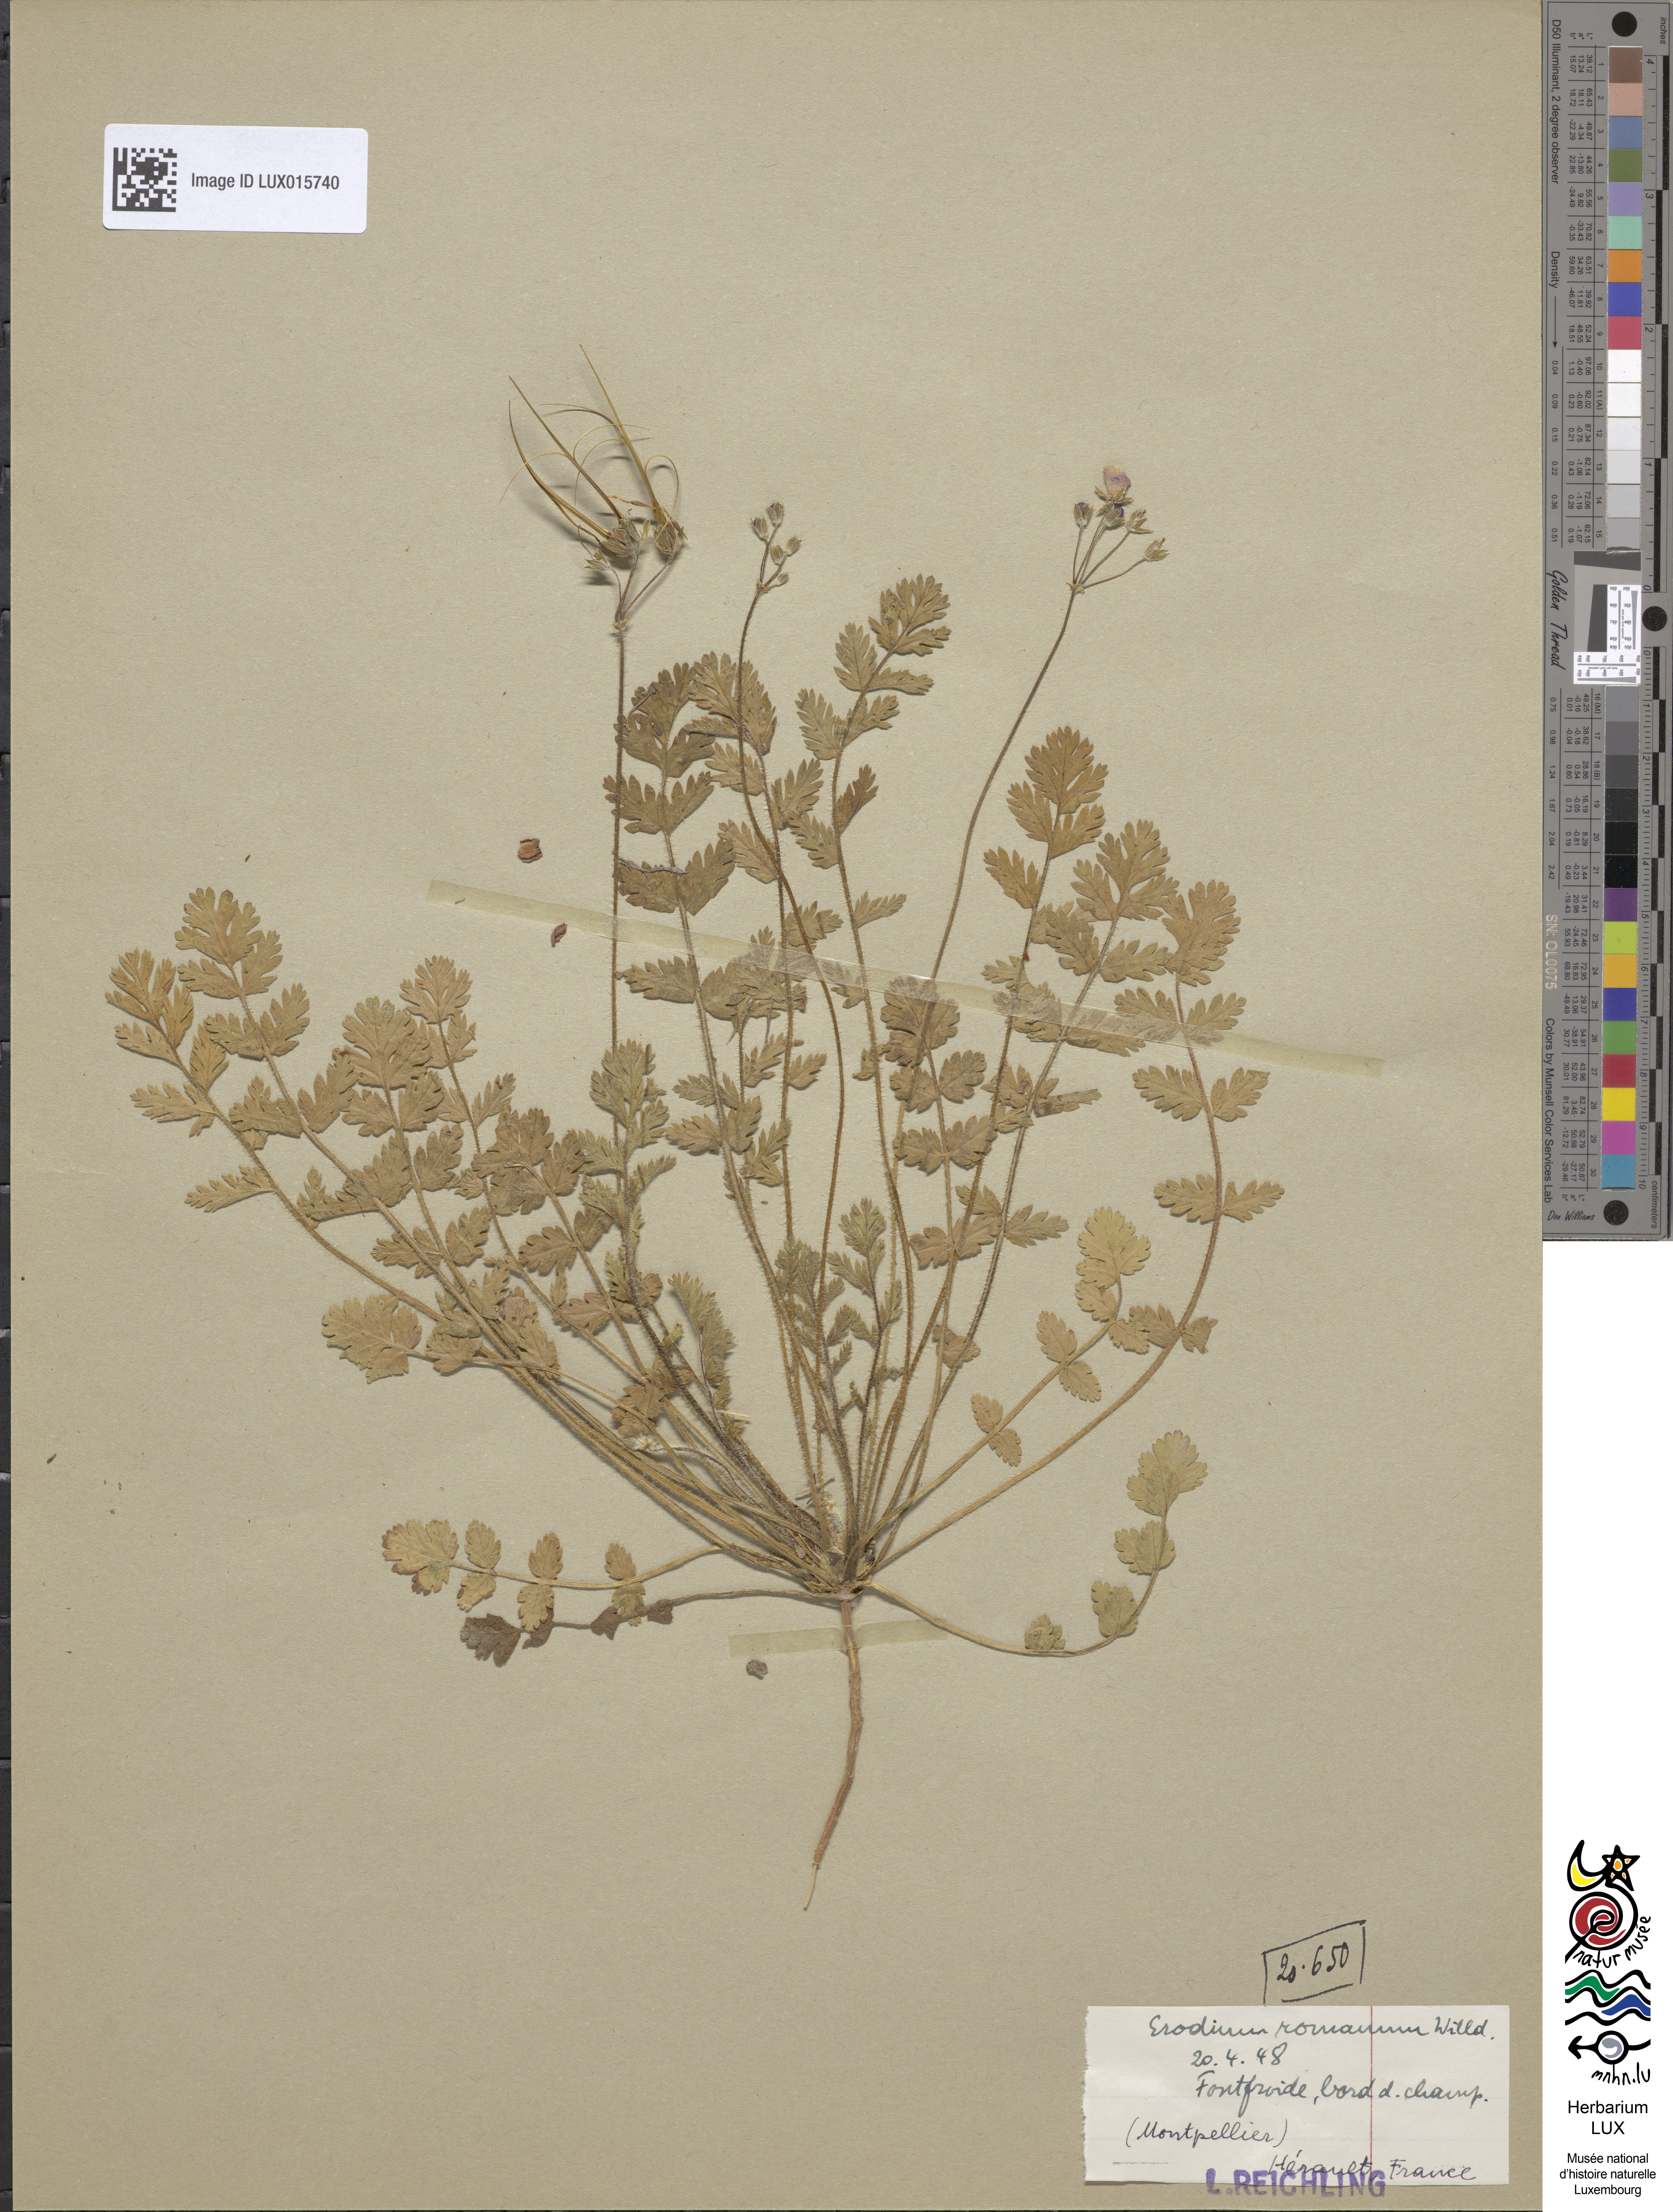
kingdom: Plantae
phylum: Tracheophyta
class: Magnoliopsida
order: Geraniales
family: Geraniaceae
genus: Erodium
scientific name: Erodium acaule
